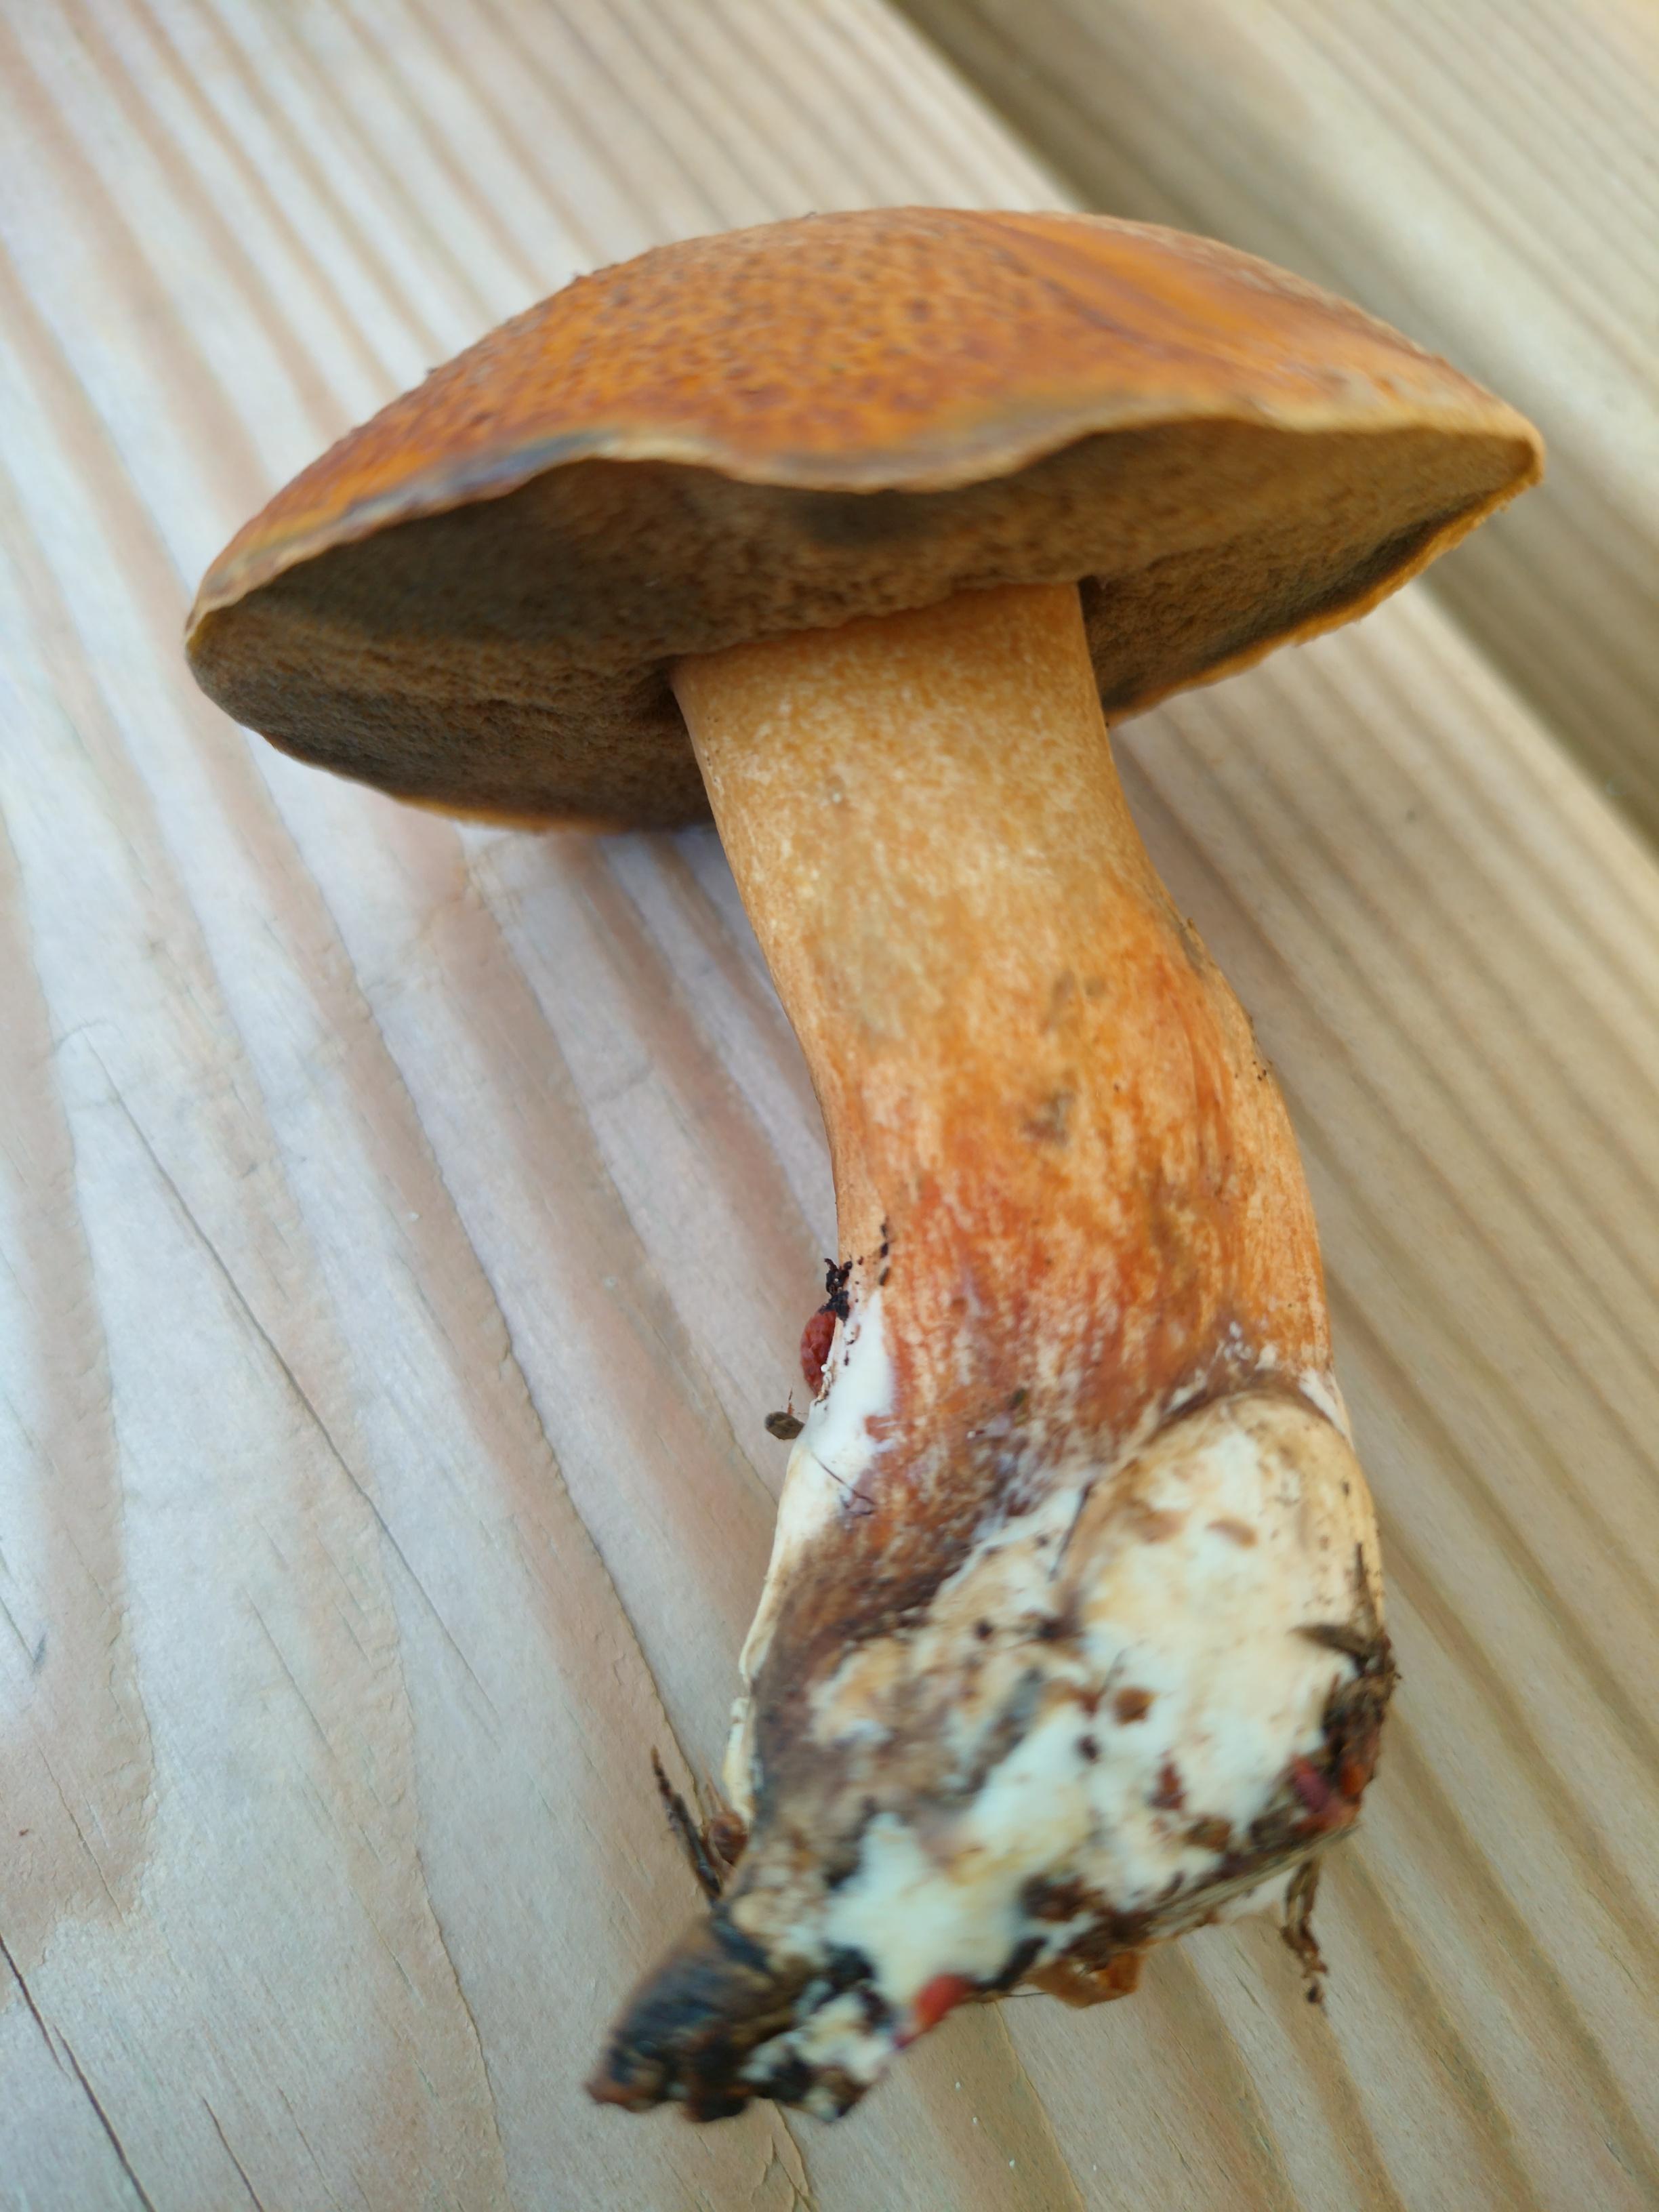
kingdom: Fungi
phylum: Basidiomycota
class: Agaricomycetes
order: Boletales
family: Suillaceae
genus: Suillus
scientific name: Suillus variegatus
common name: broget slimrørhat
